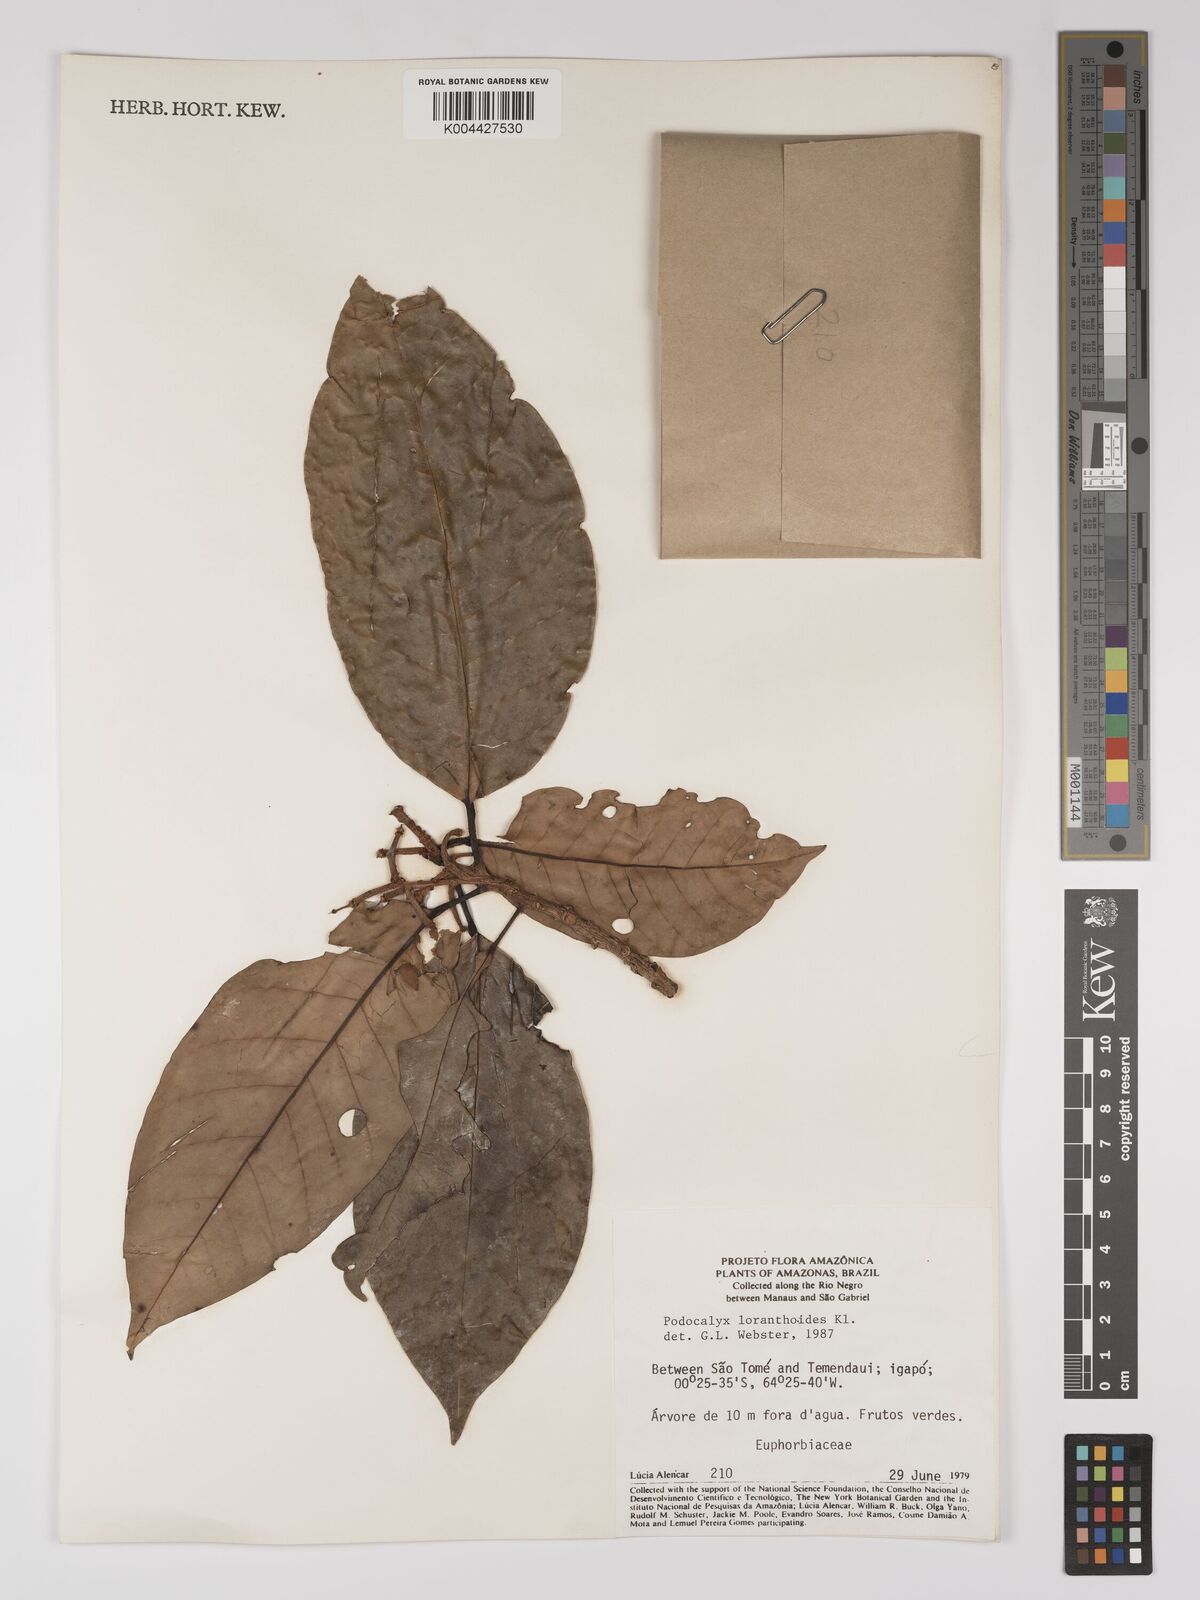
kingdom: Plantae
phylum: Tracheophyta
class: Magnoliopsida
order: Malpighiales
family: Picrodendraceae
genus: Podocalyx
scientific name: Podocalyx loranthoides
